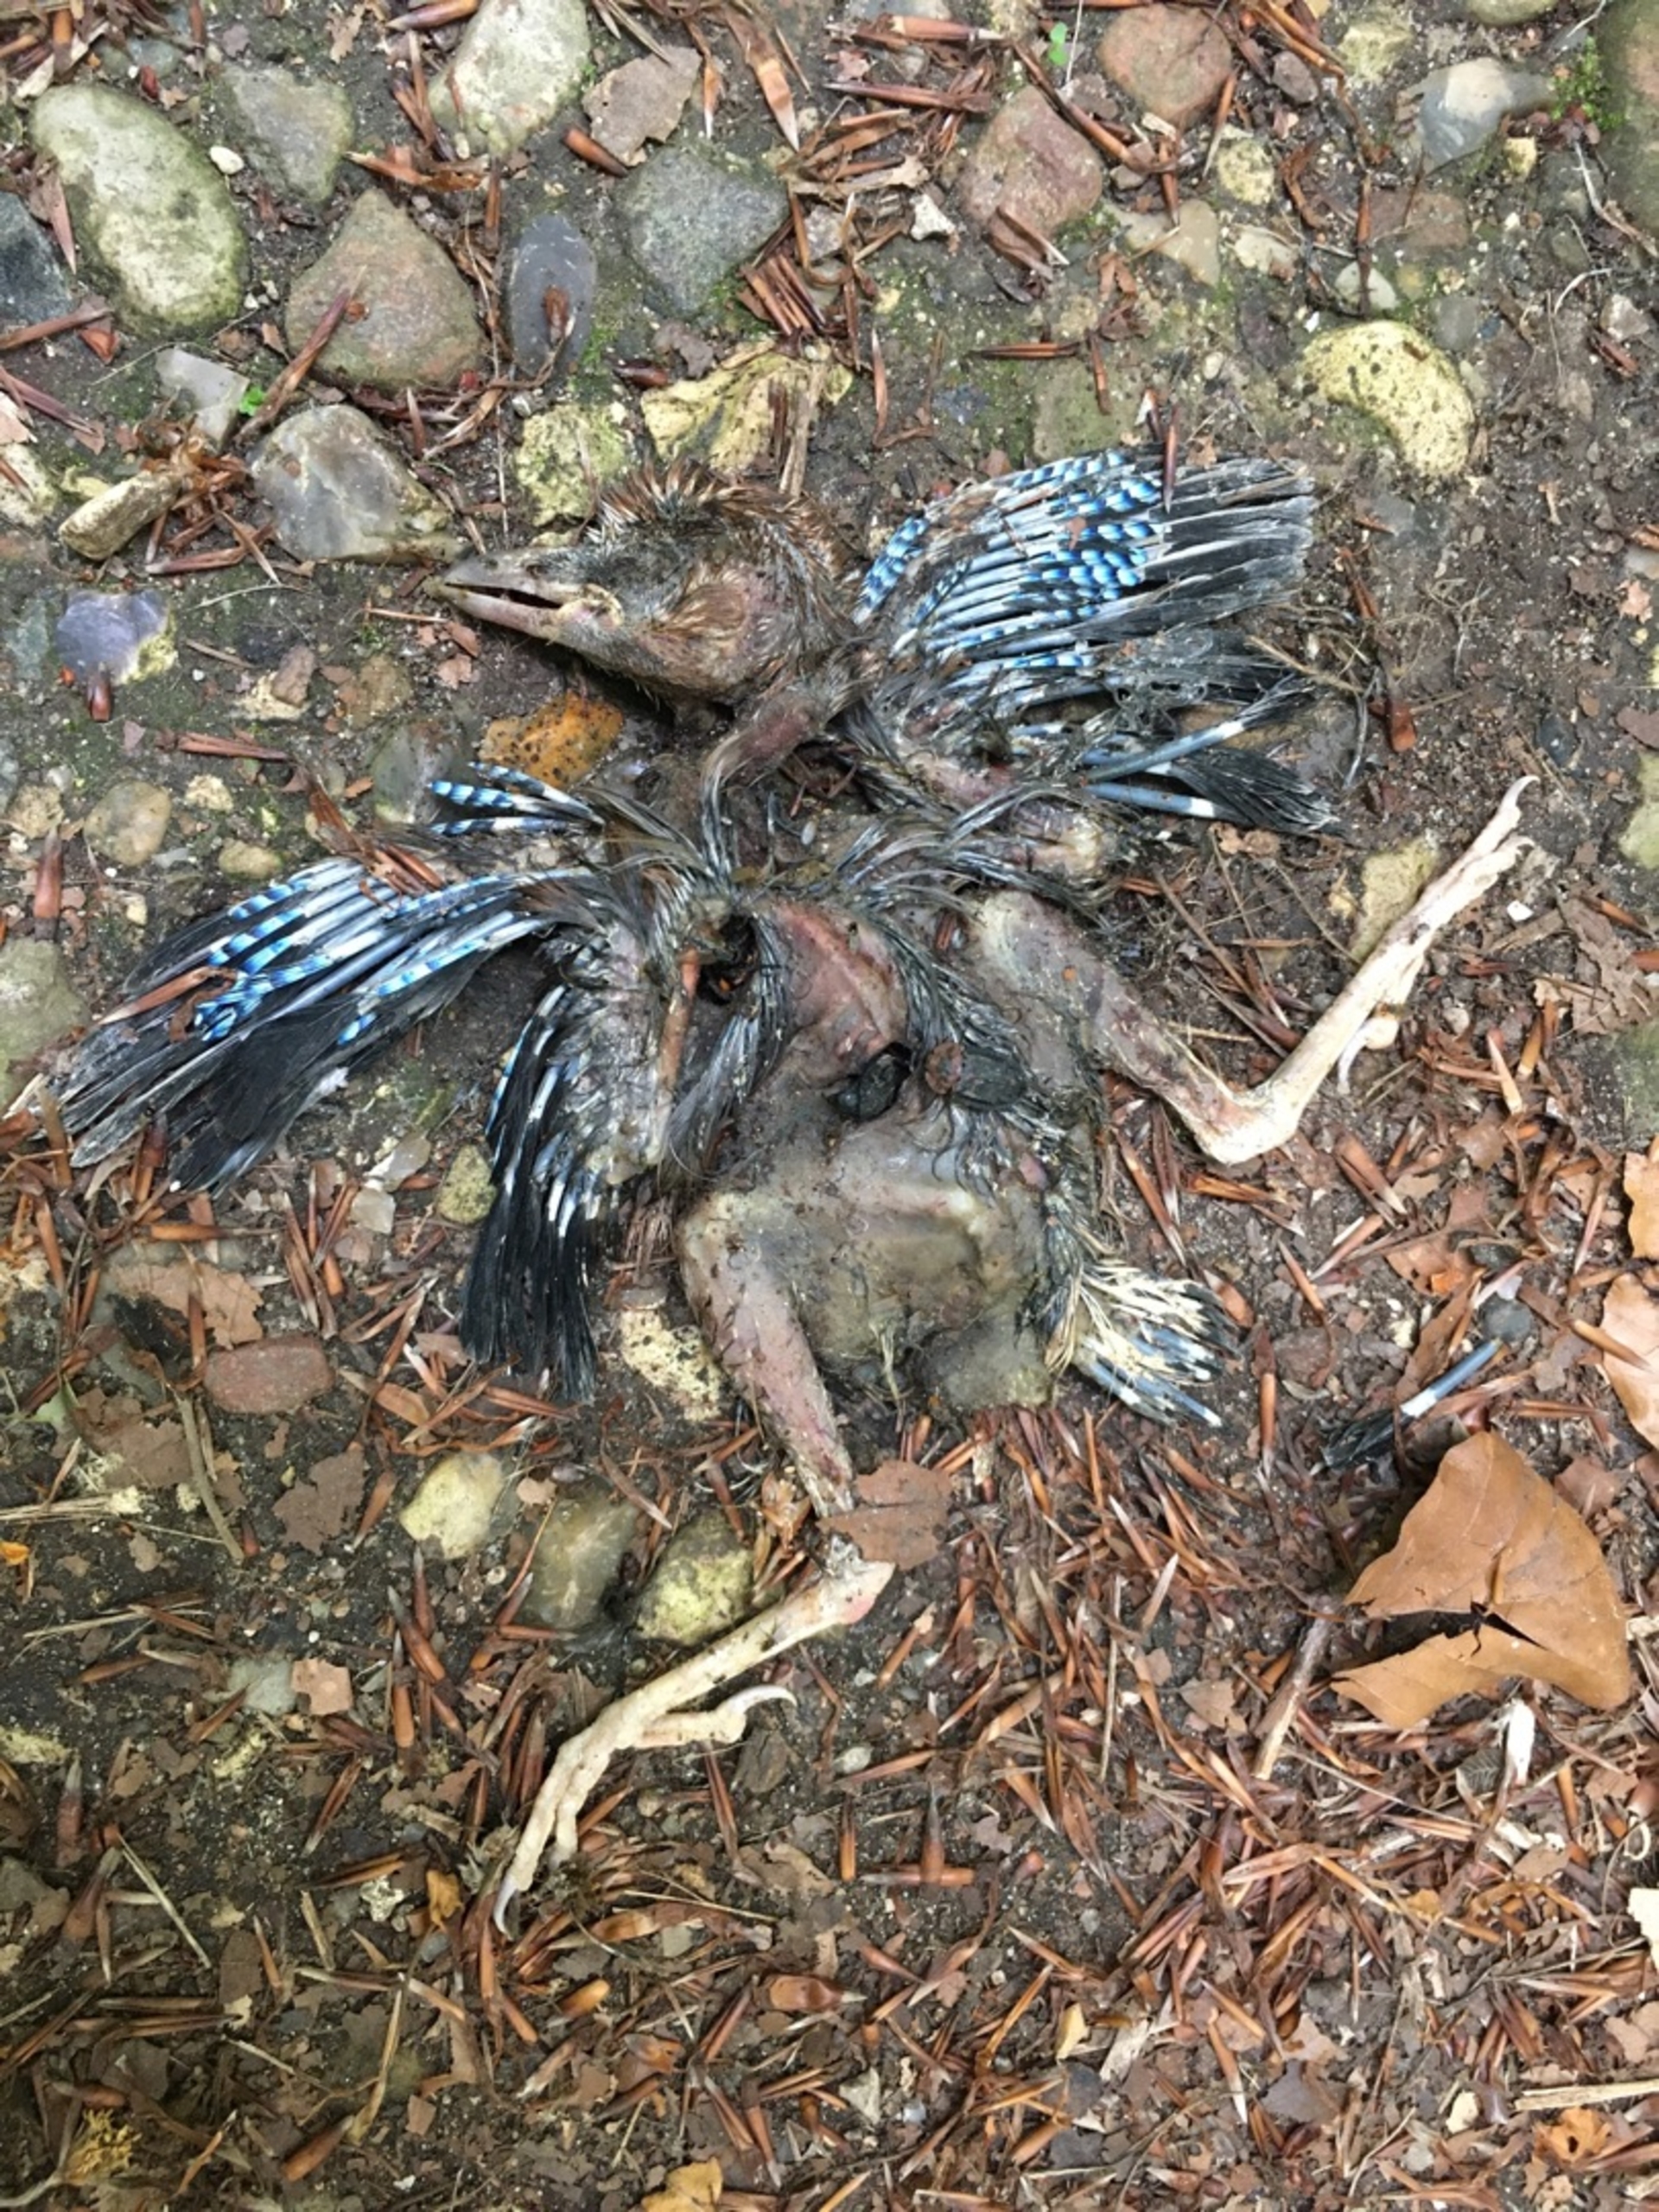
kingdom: Animalia
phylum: Chordata
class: Aves
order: Passeriformes
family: Corvidae
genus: Garrulus
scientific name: Garrulus glandarius
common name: Skovskade
